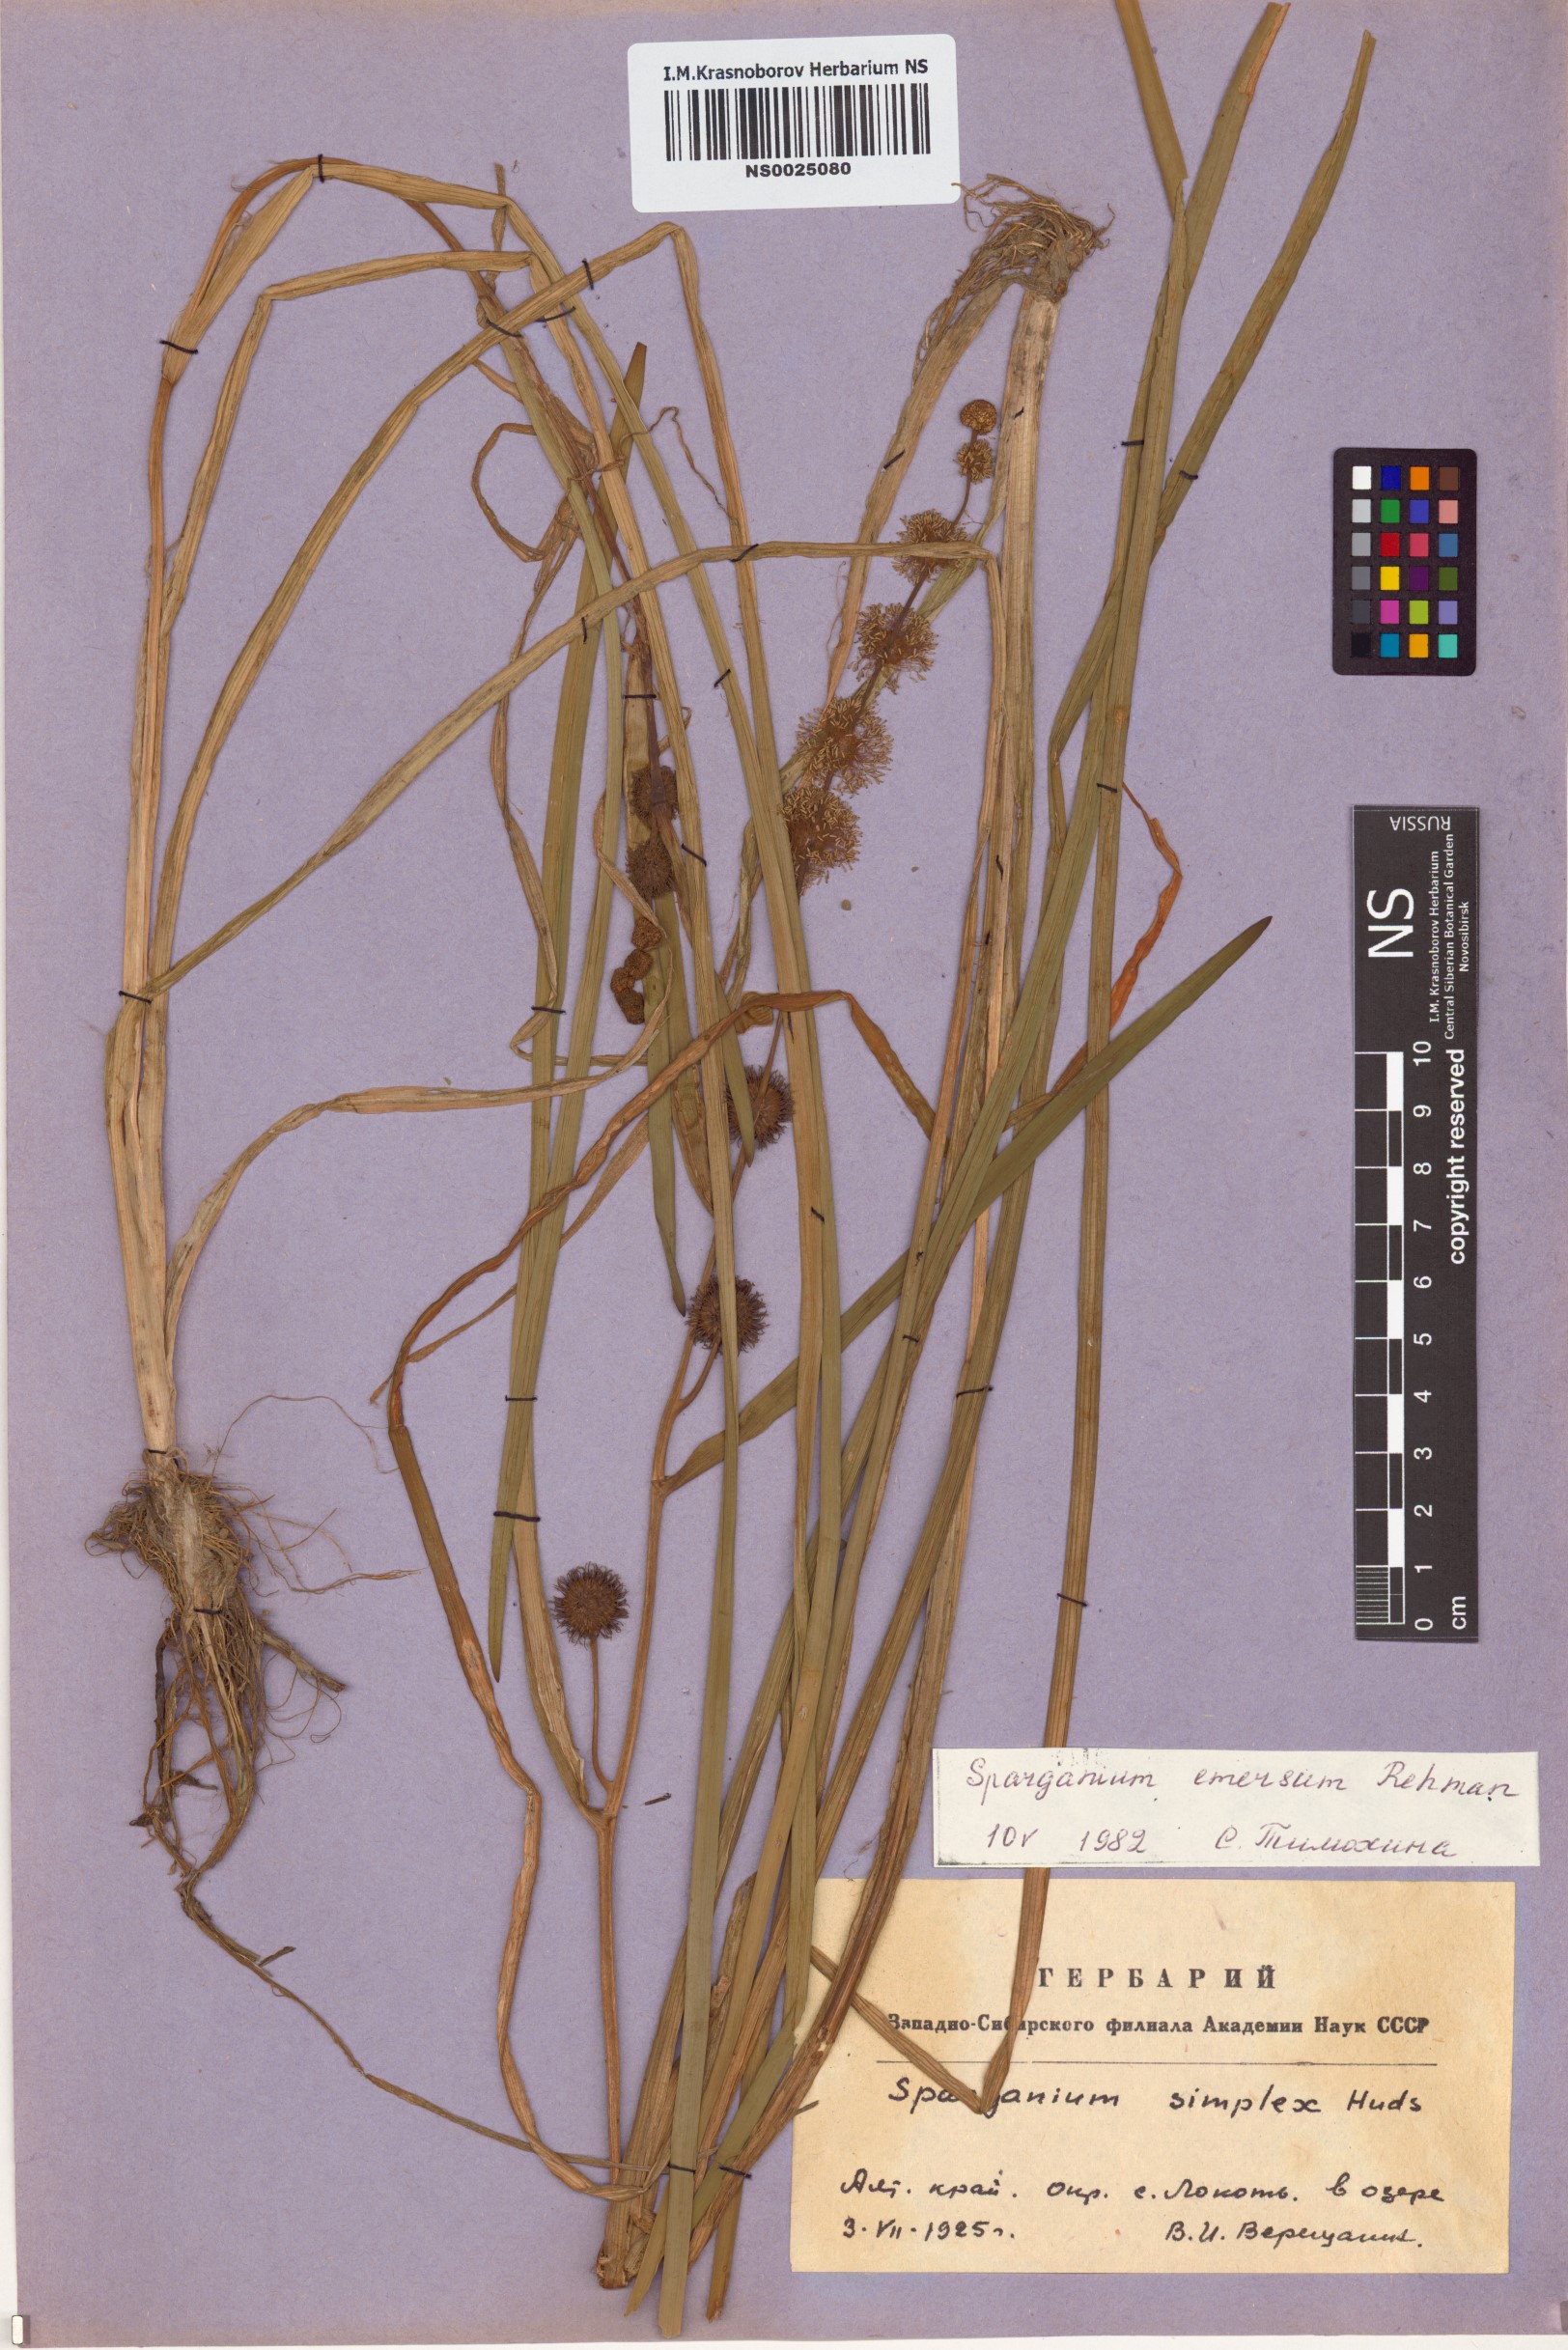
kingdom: Plantae
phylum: Tracheophyta
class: Liliopsida
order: Poales
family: Typhaceae
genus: Sparganium
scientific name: Sparganium emersum
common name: Unbranched bur-reed
